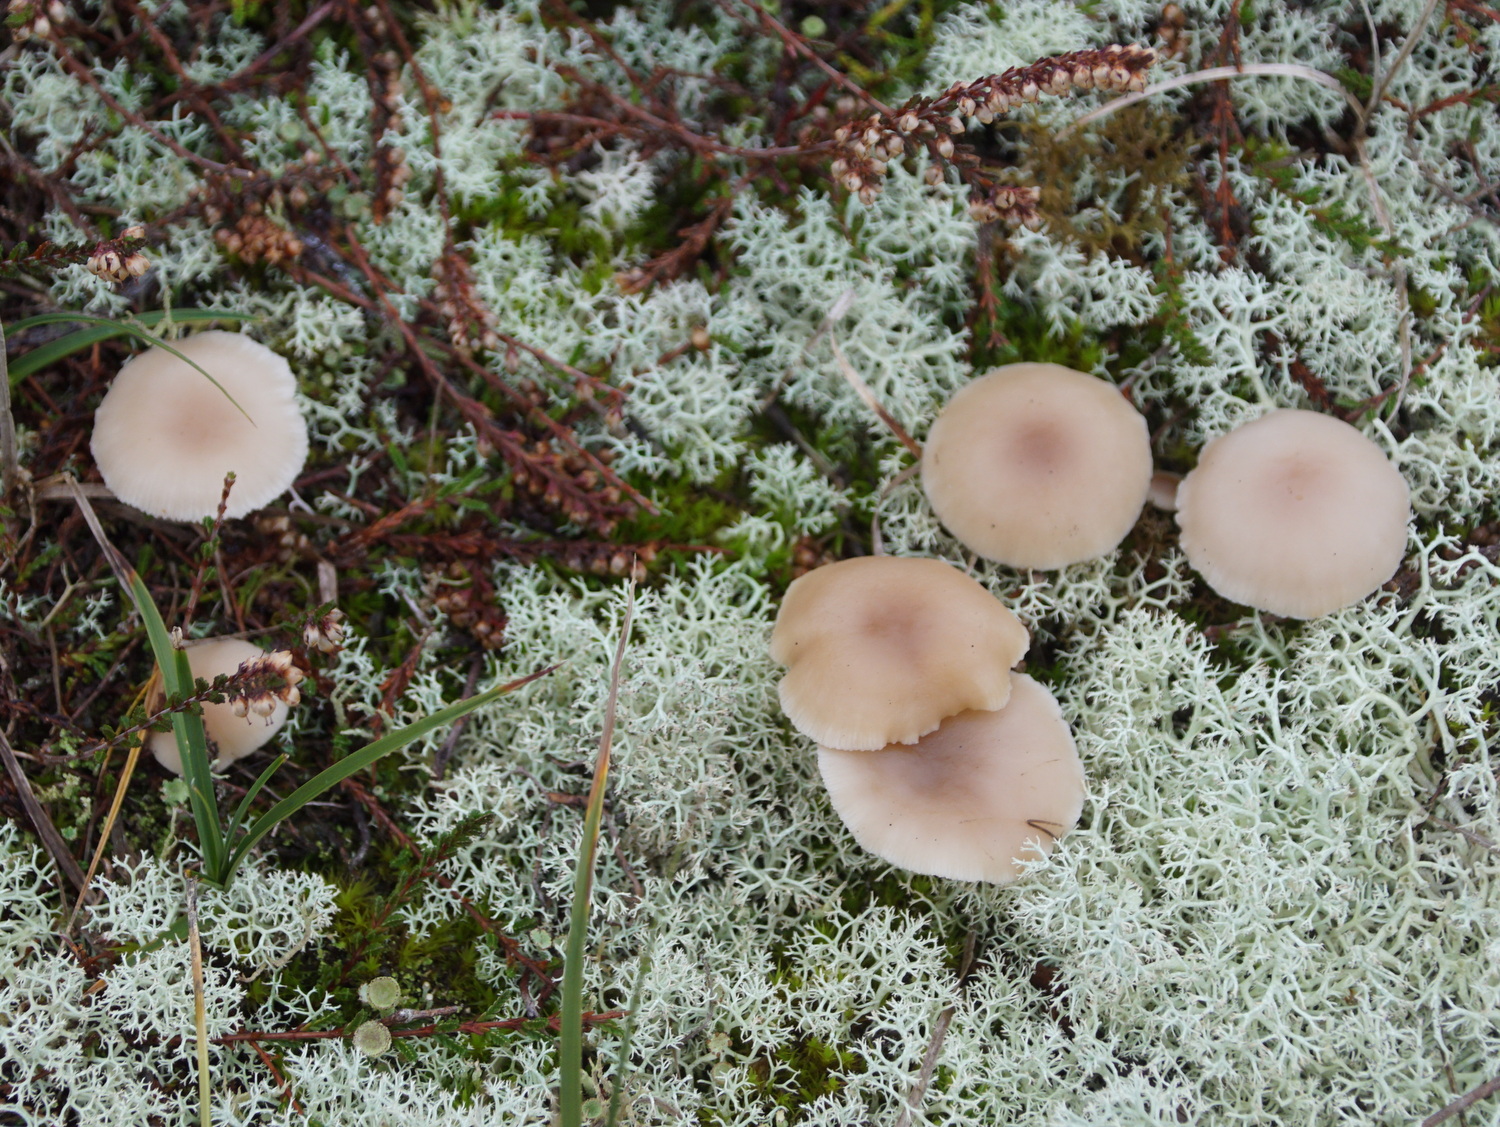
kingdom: Fungi
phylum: Basidiomycota
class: Agaricomycetes
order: Agaricales
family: Tricholomataceae
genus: Clitocybe
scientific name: Clitocybe
